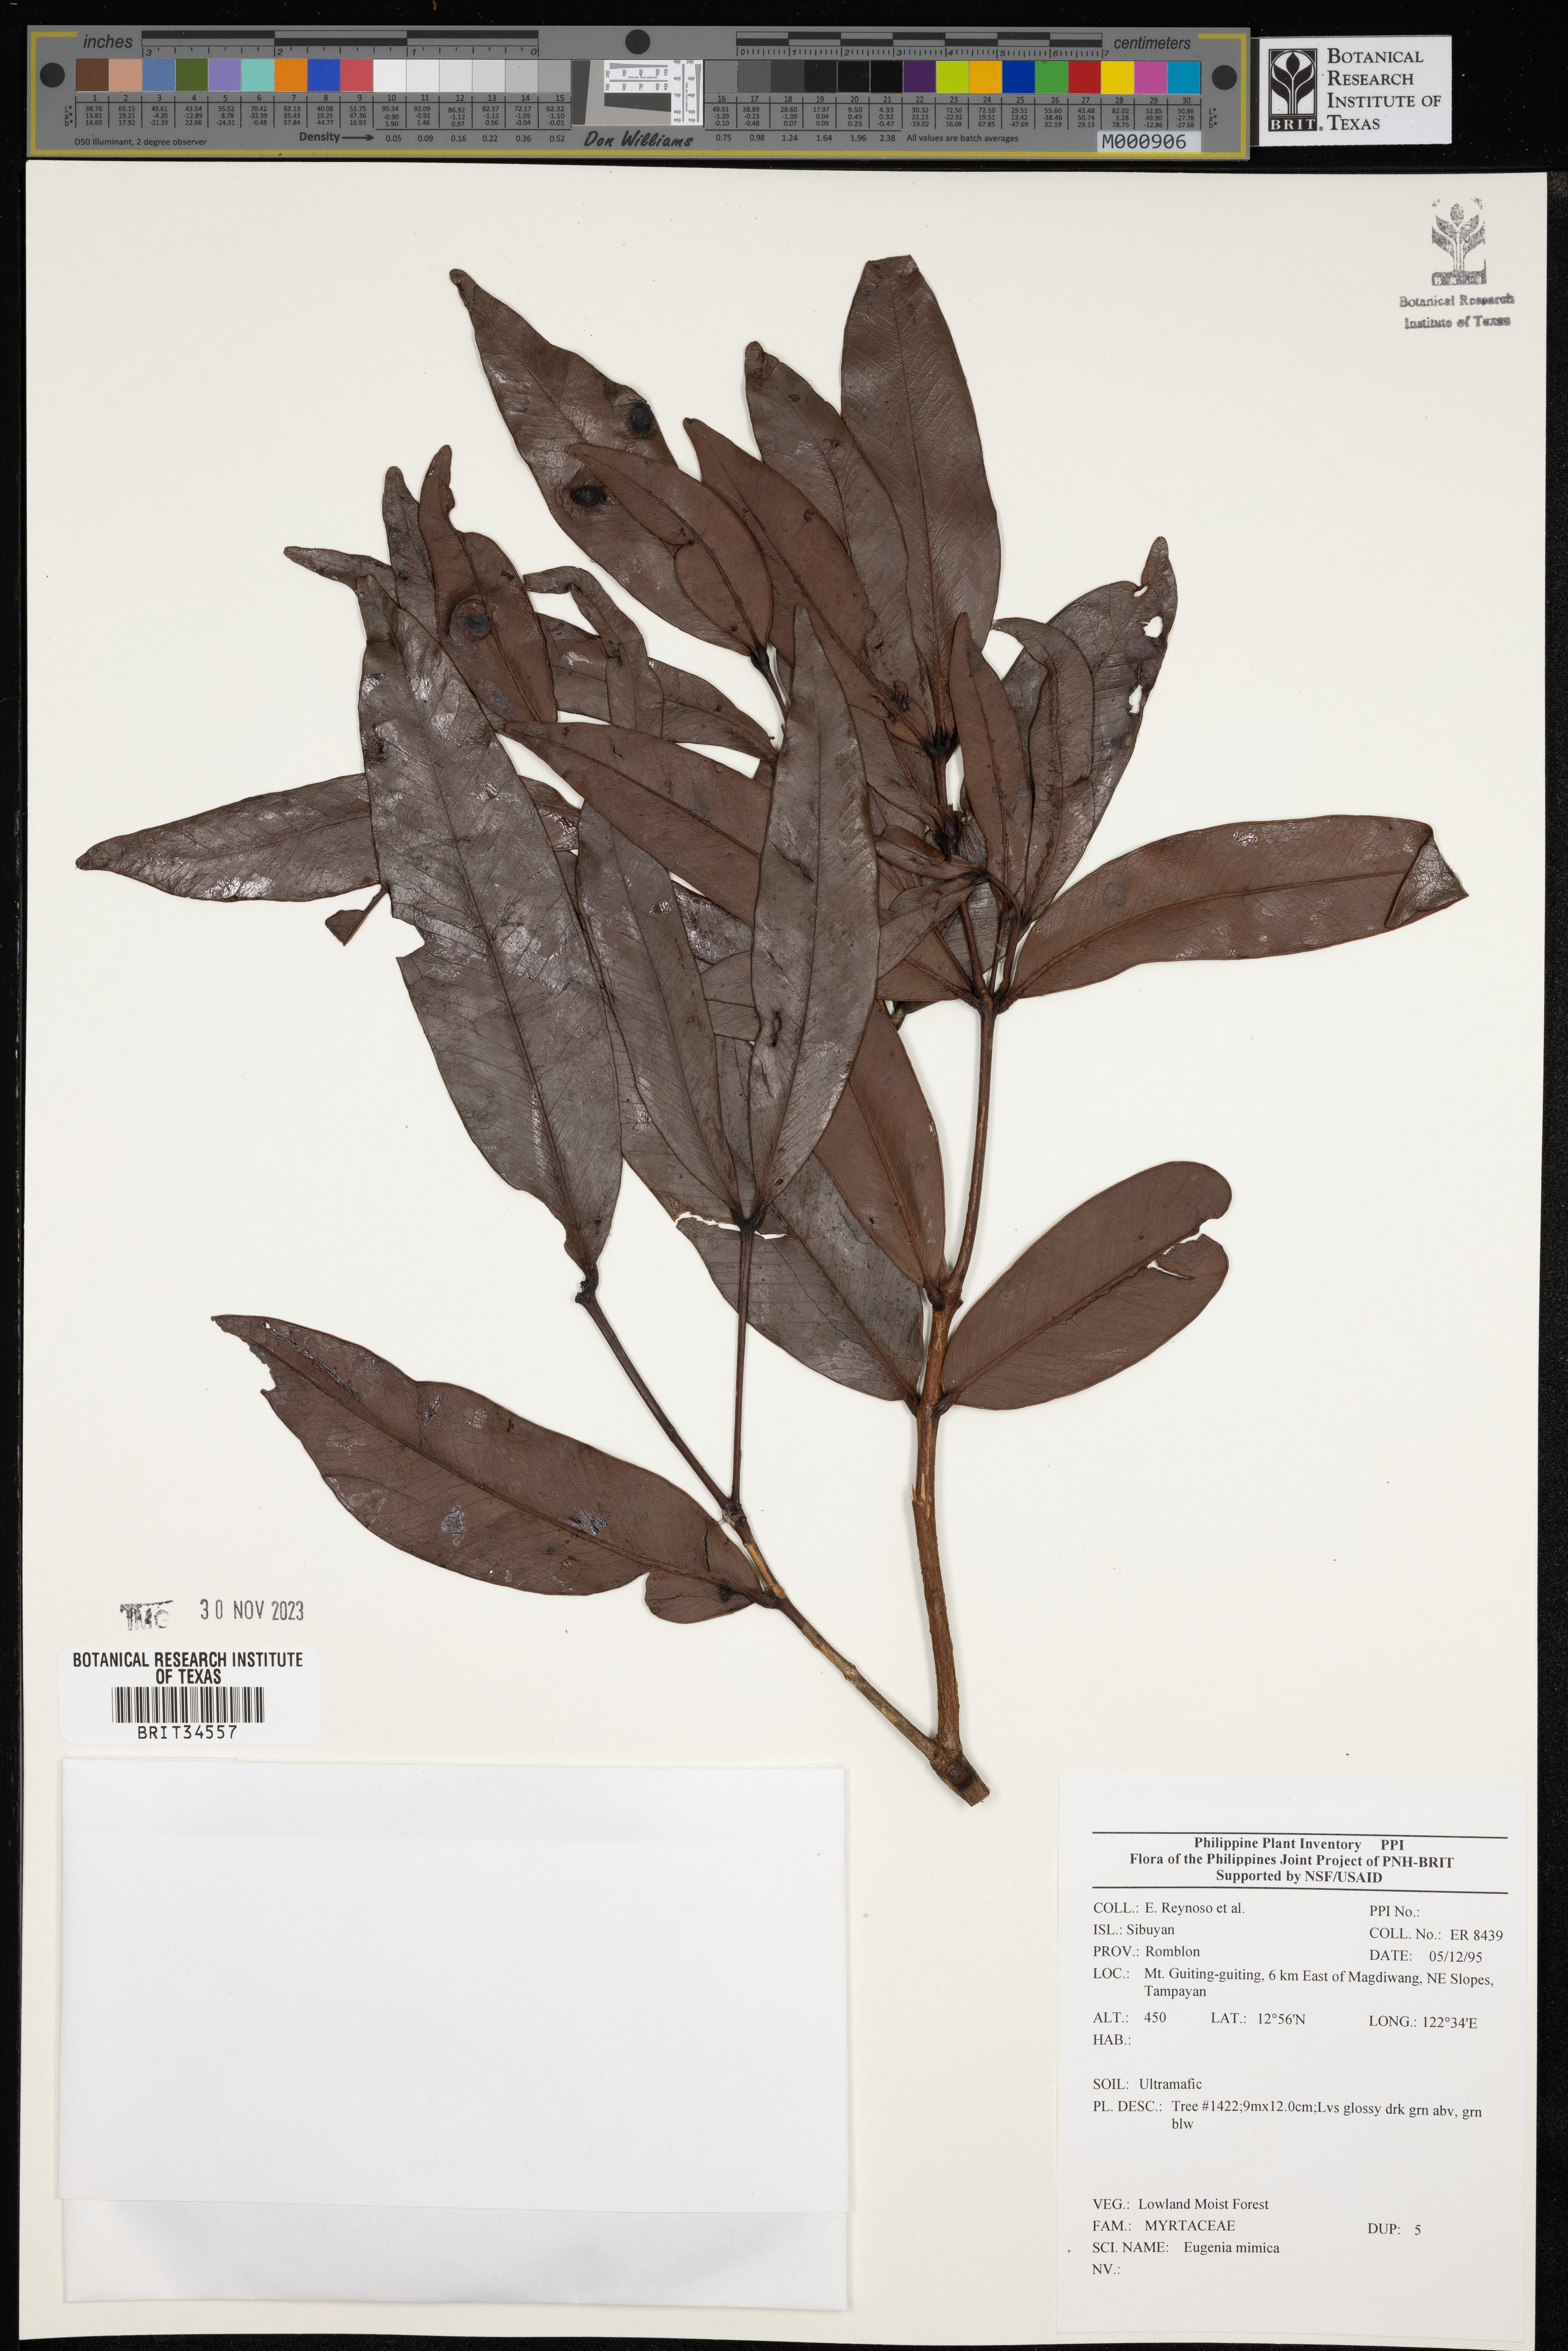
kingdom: Plantae
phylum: Tracheophyta
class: Magnoliopsida
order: Myrtales
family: Myrtaceae
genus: Eugenia
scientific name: Eugenia
